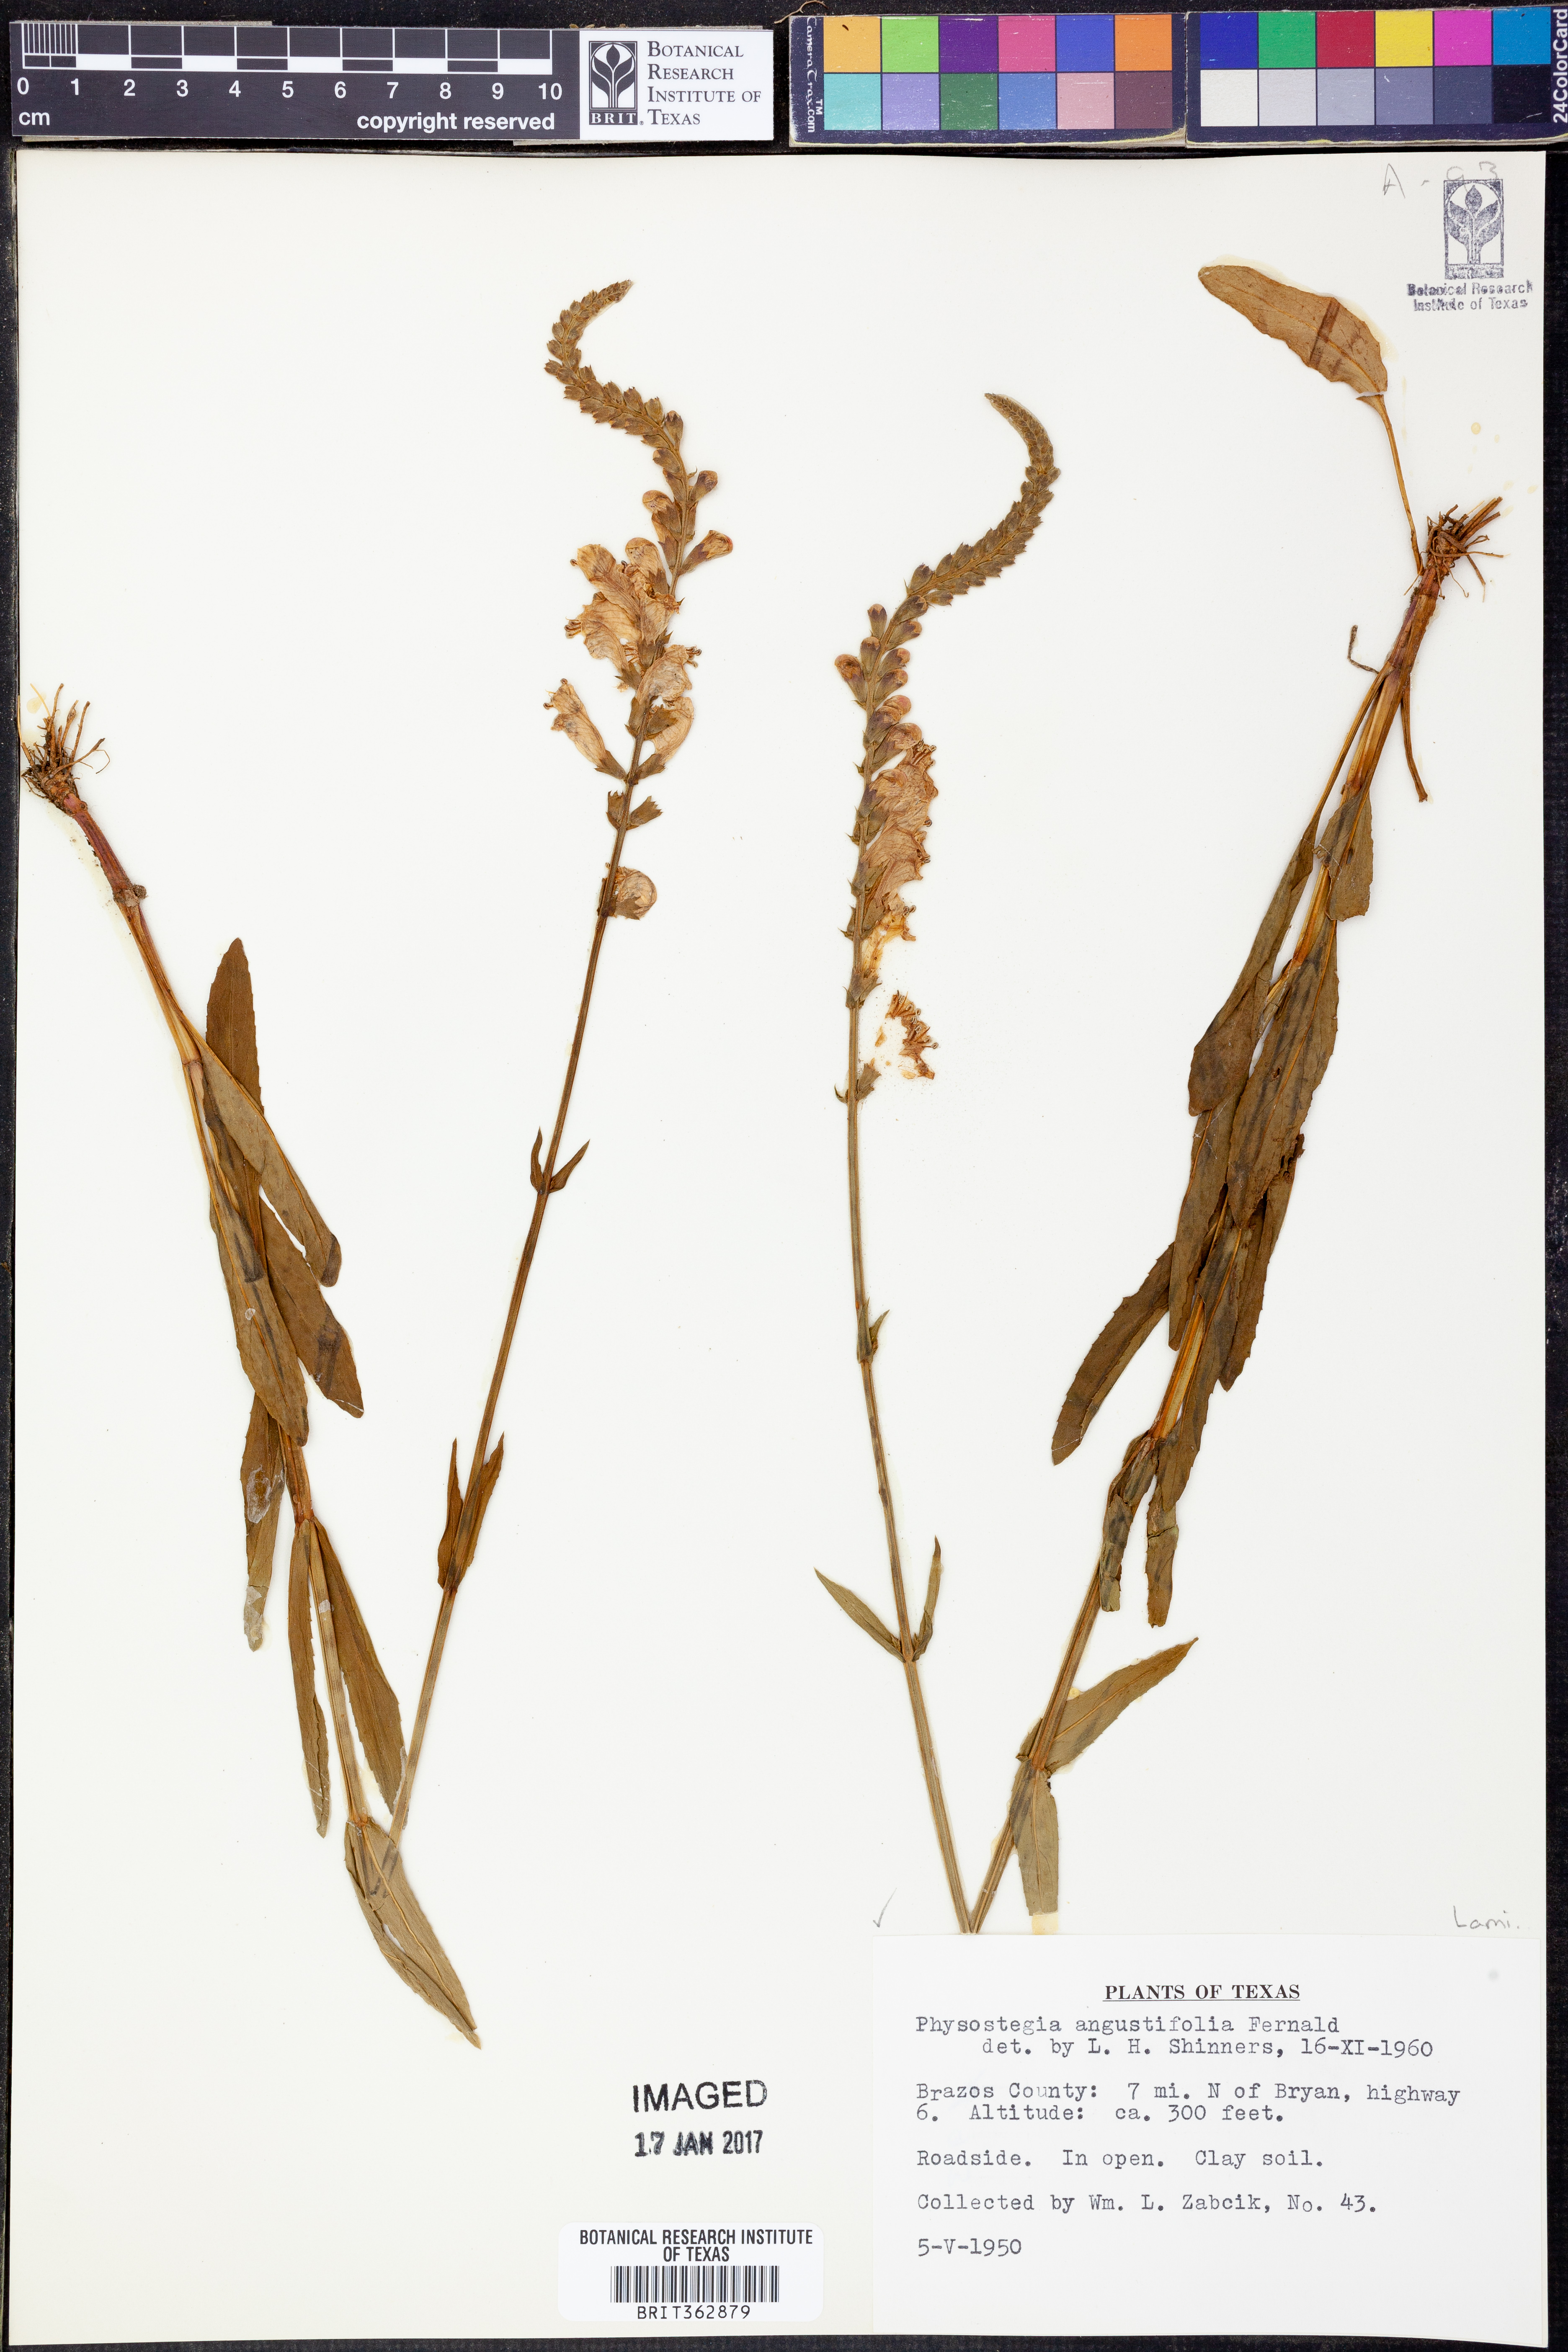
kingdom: Plantae
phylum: Tracheophyta
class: Magnoliopsida
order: Lamiales
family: Lamiaceae
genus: Physostegia
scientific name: Physostegia angustifolia
